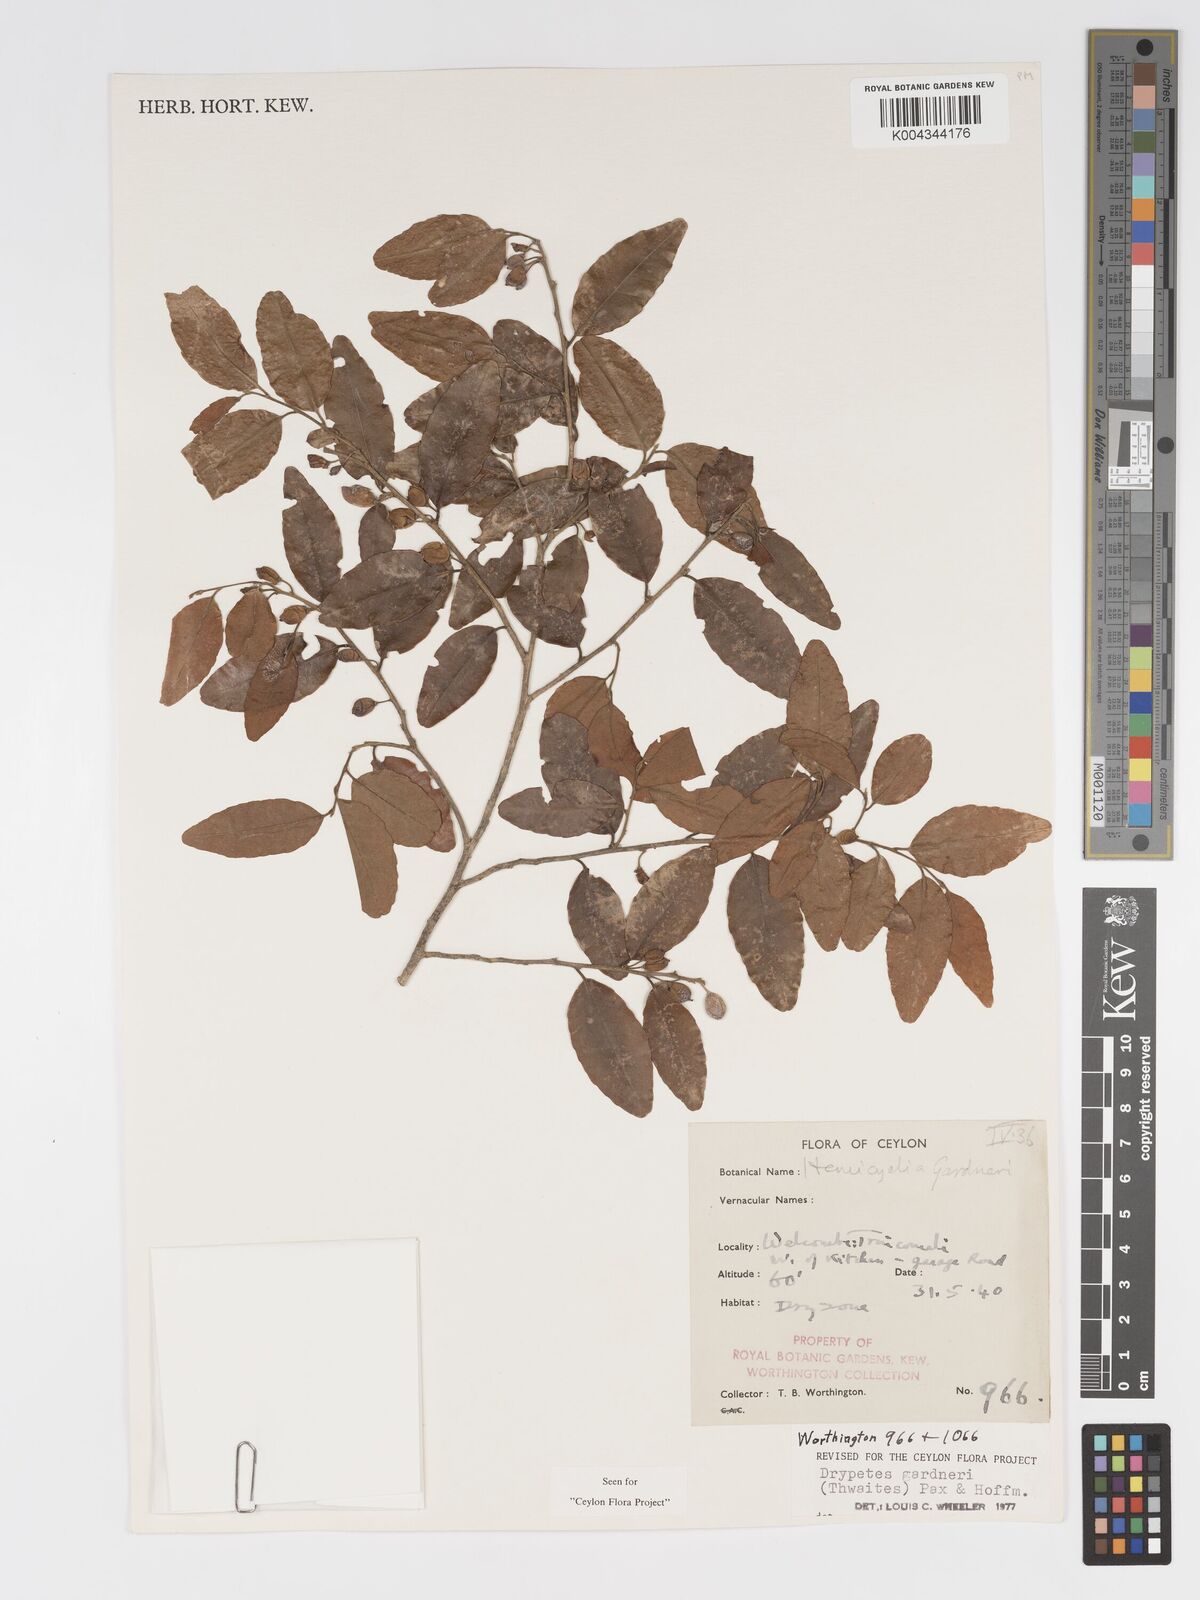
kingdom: Plantae
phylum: Tracheophyta
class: Magnoliopsida
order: Malpighiales
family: Putranjivaceae
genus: Drypetes
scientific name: Drypetes gardneri
